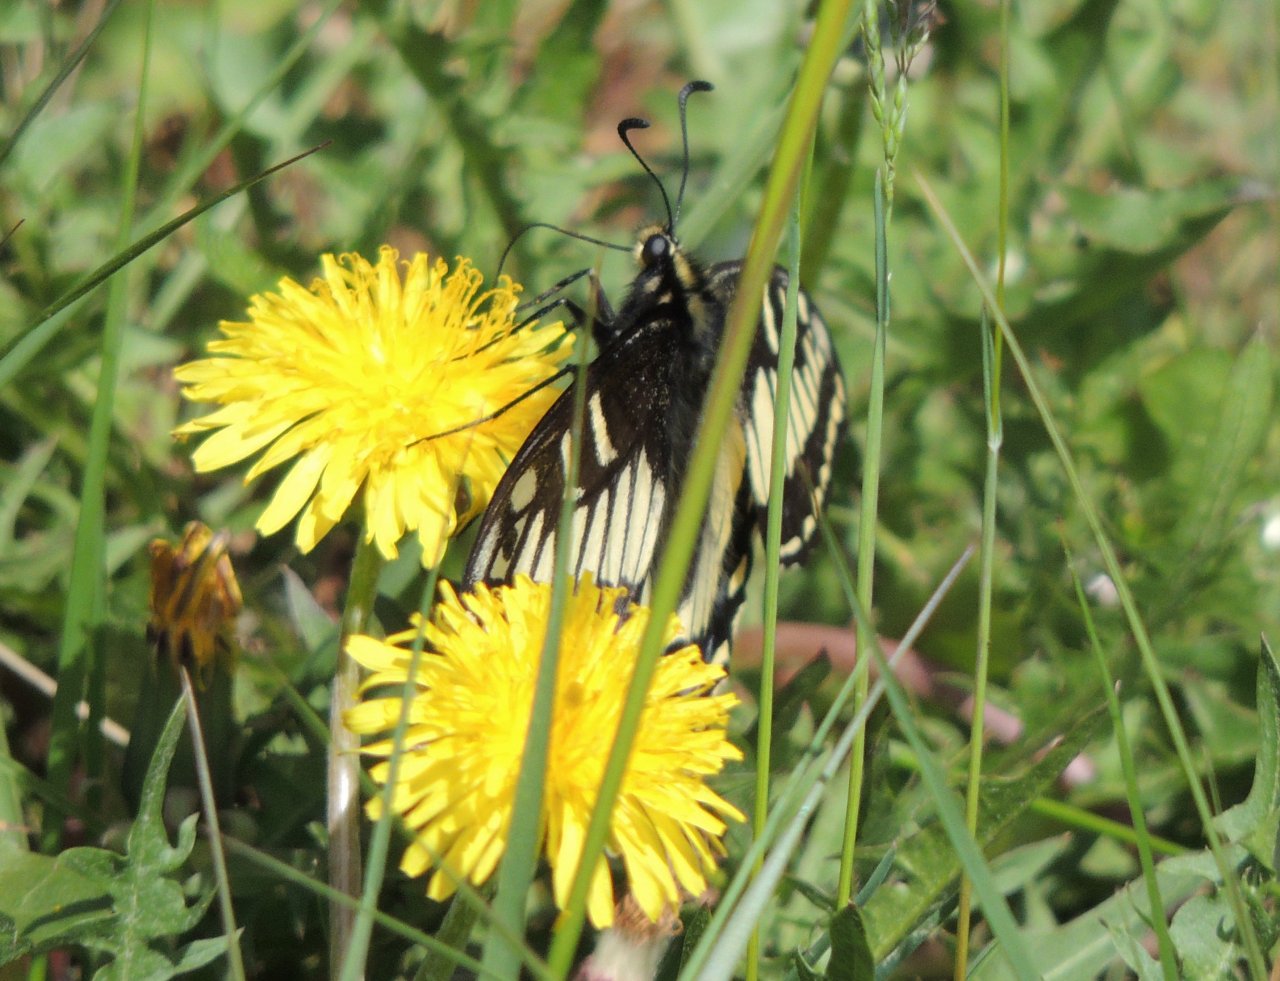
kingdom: Animalia
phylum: Arthropoda
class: Insecta
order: Lepidoptera
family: Papilionidae
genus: Papilio
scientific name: Papilio zelicaon
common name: Anise Swallowtail
